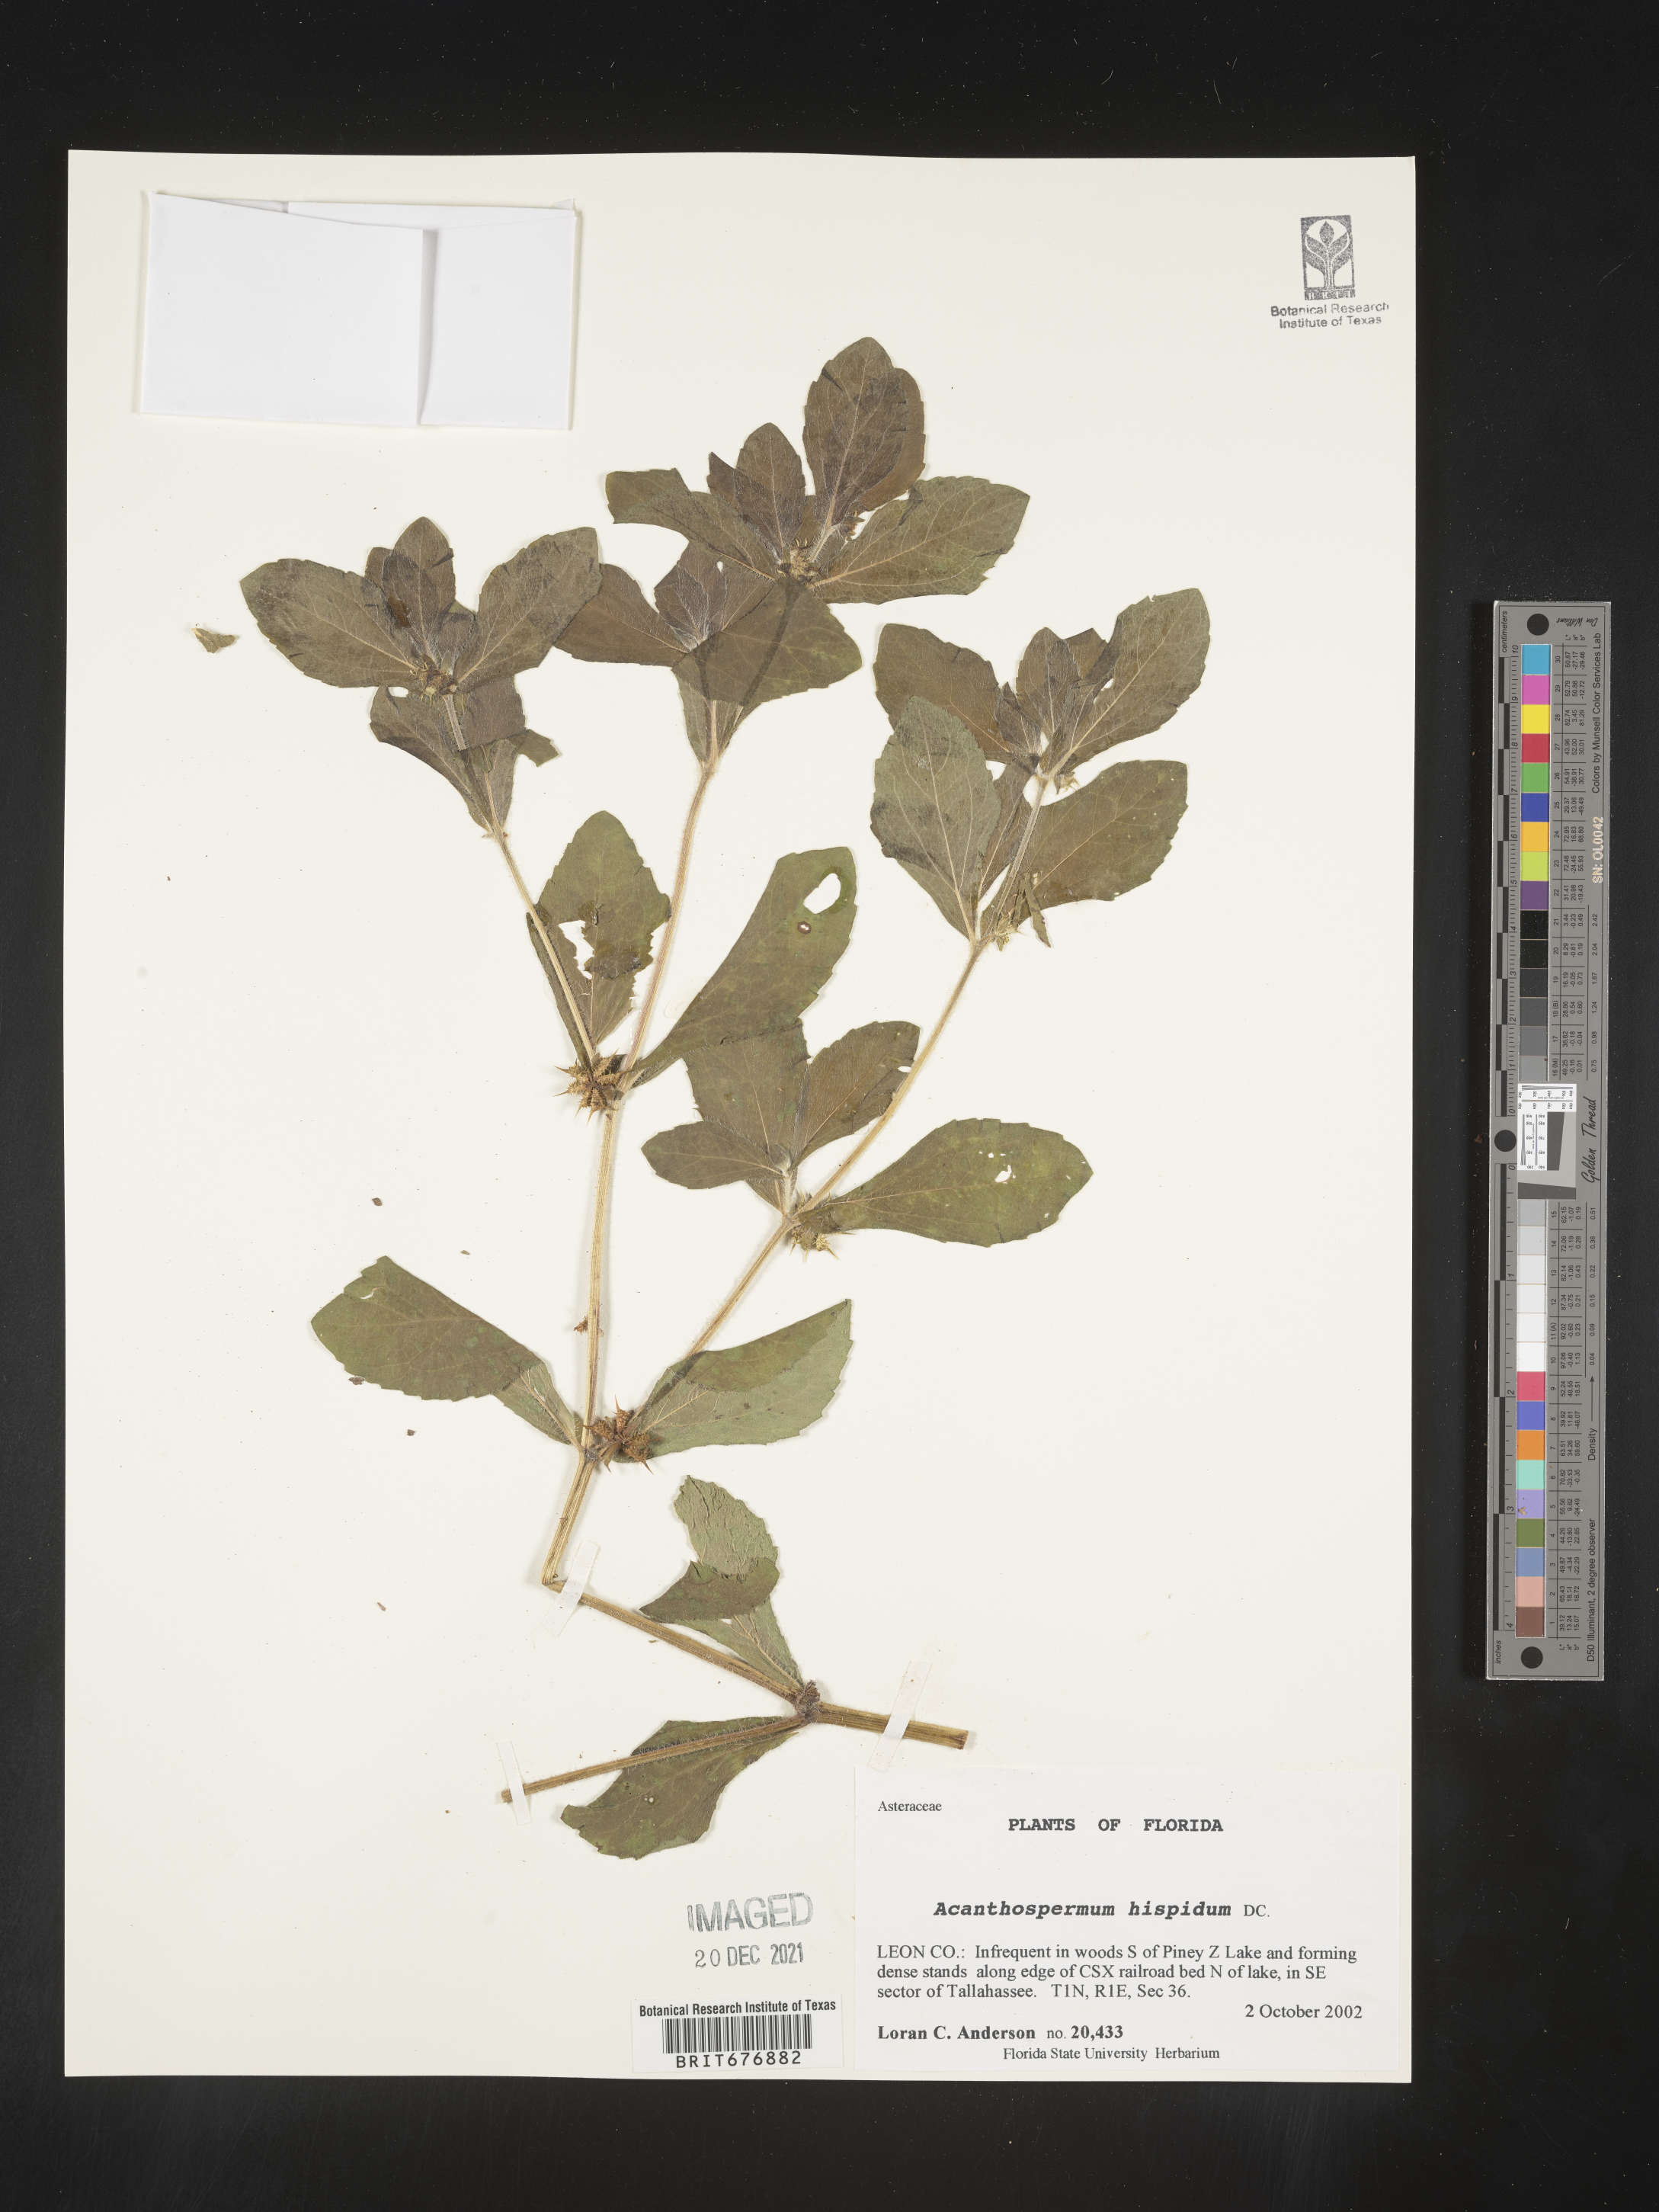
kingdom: Plantae
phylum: Tracheophyta
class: Magnoliopsida
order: Asterales
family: Asteraceae
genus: Acanthospermum
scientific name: Acanthospermum hispidum
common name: Hispid starbur
